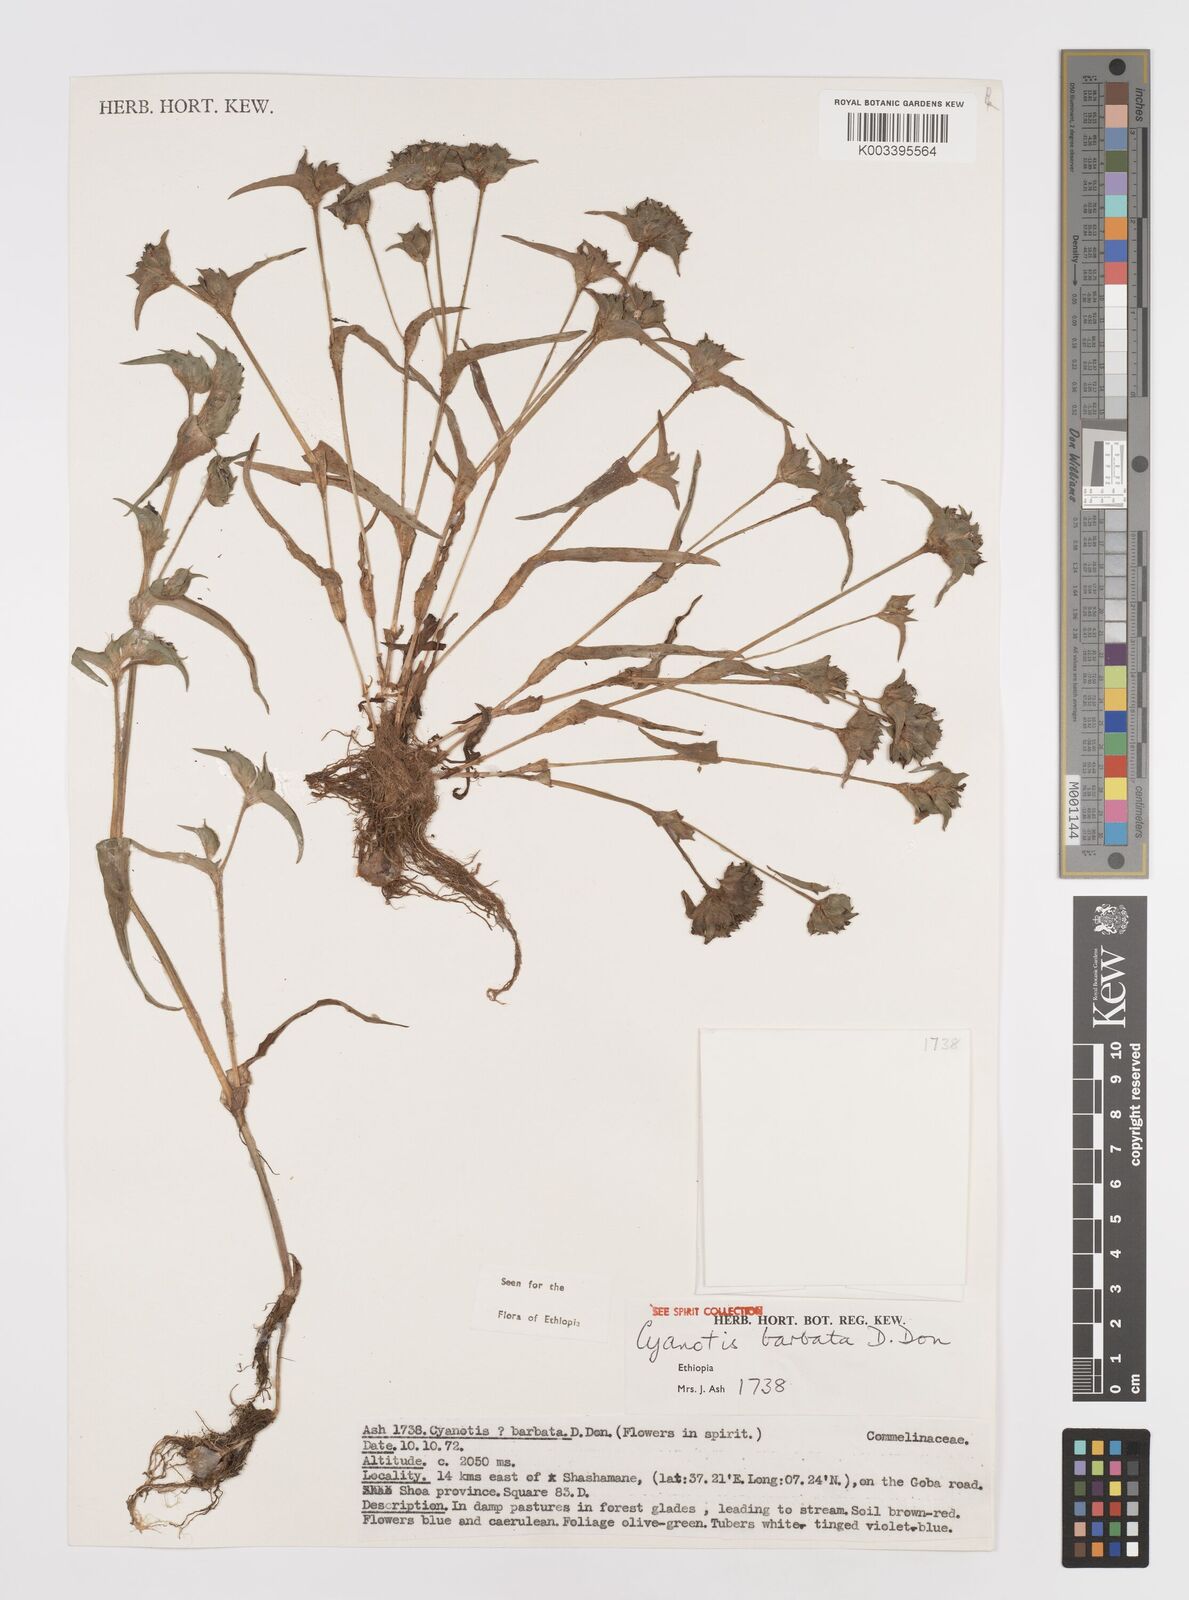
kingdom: Plantae
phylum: Tracheophyta
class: Liliopsida
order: Commelinales
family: Commelinaceae
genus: Cyanotis
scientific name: Cyanotis vaga
